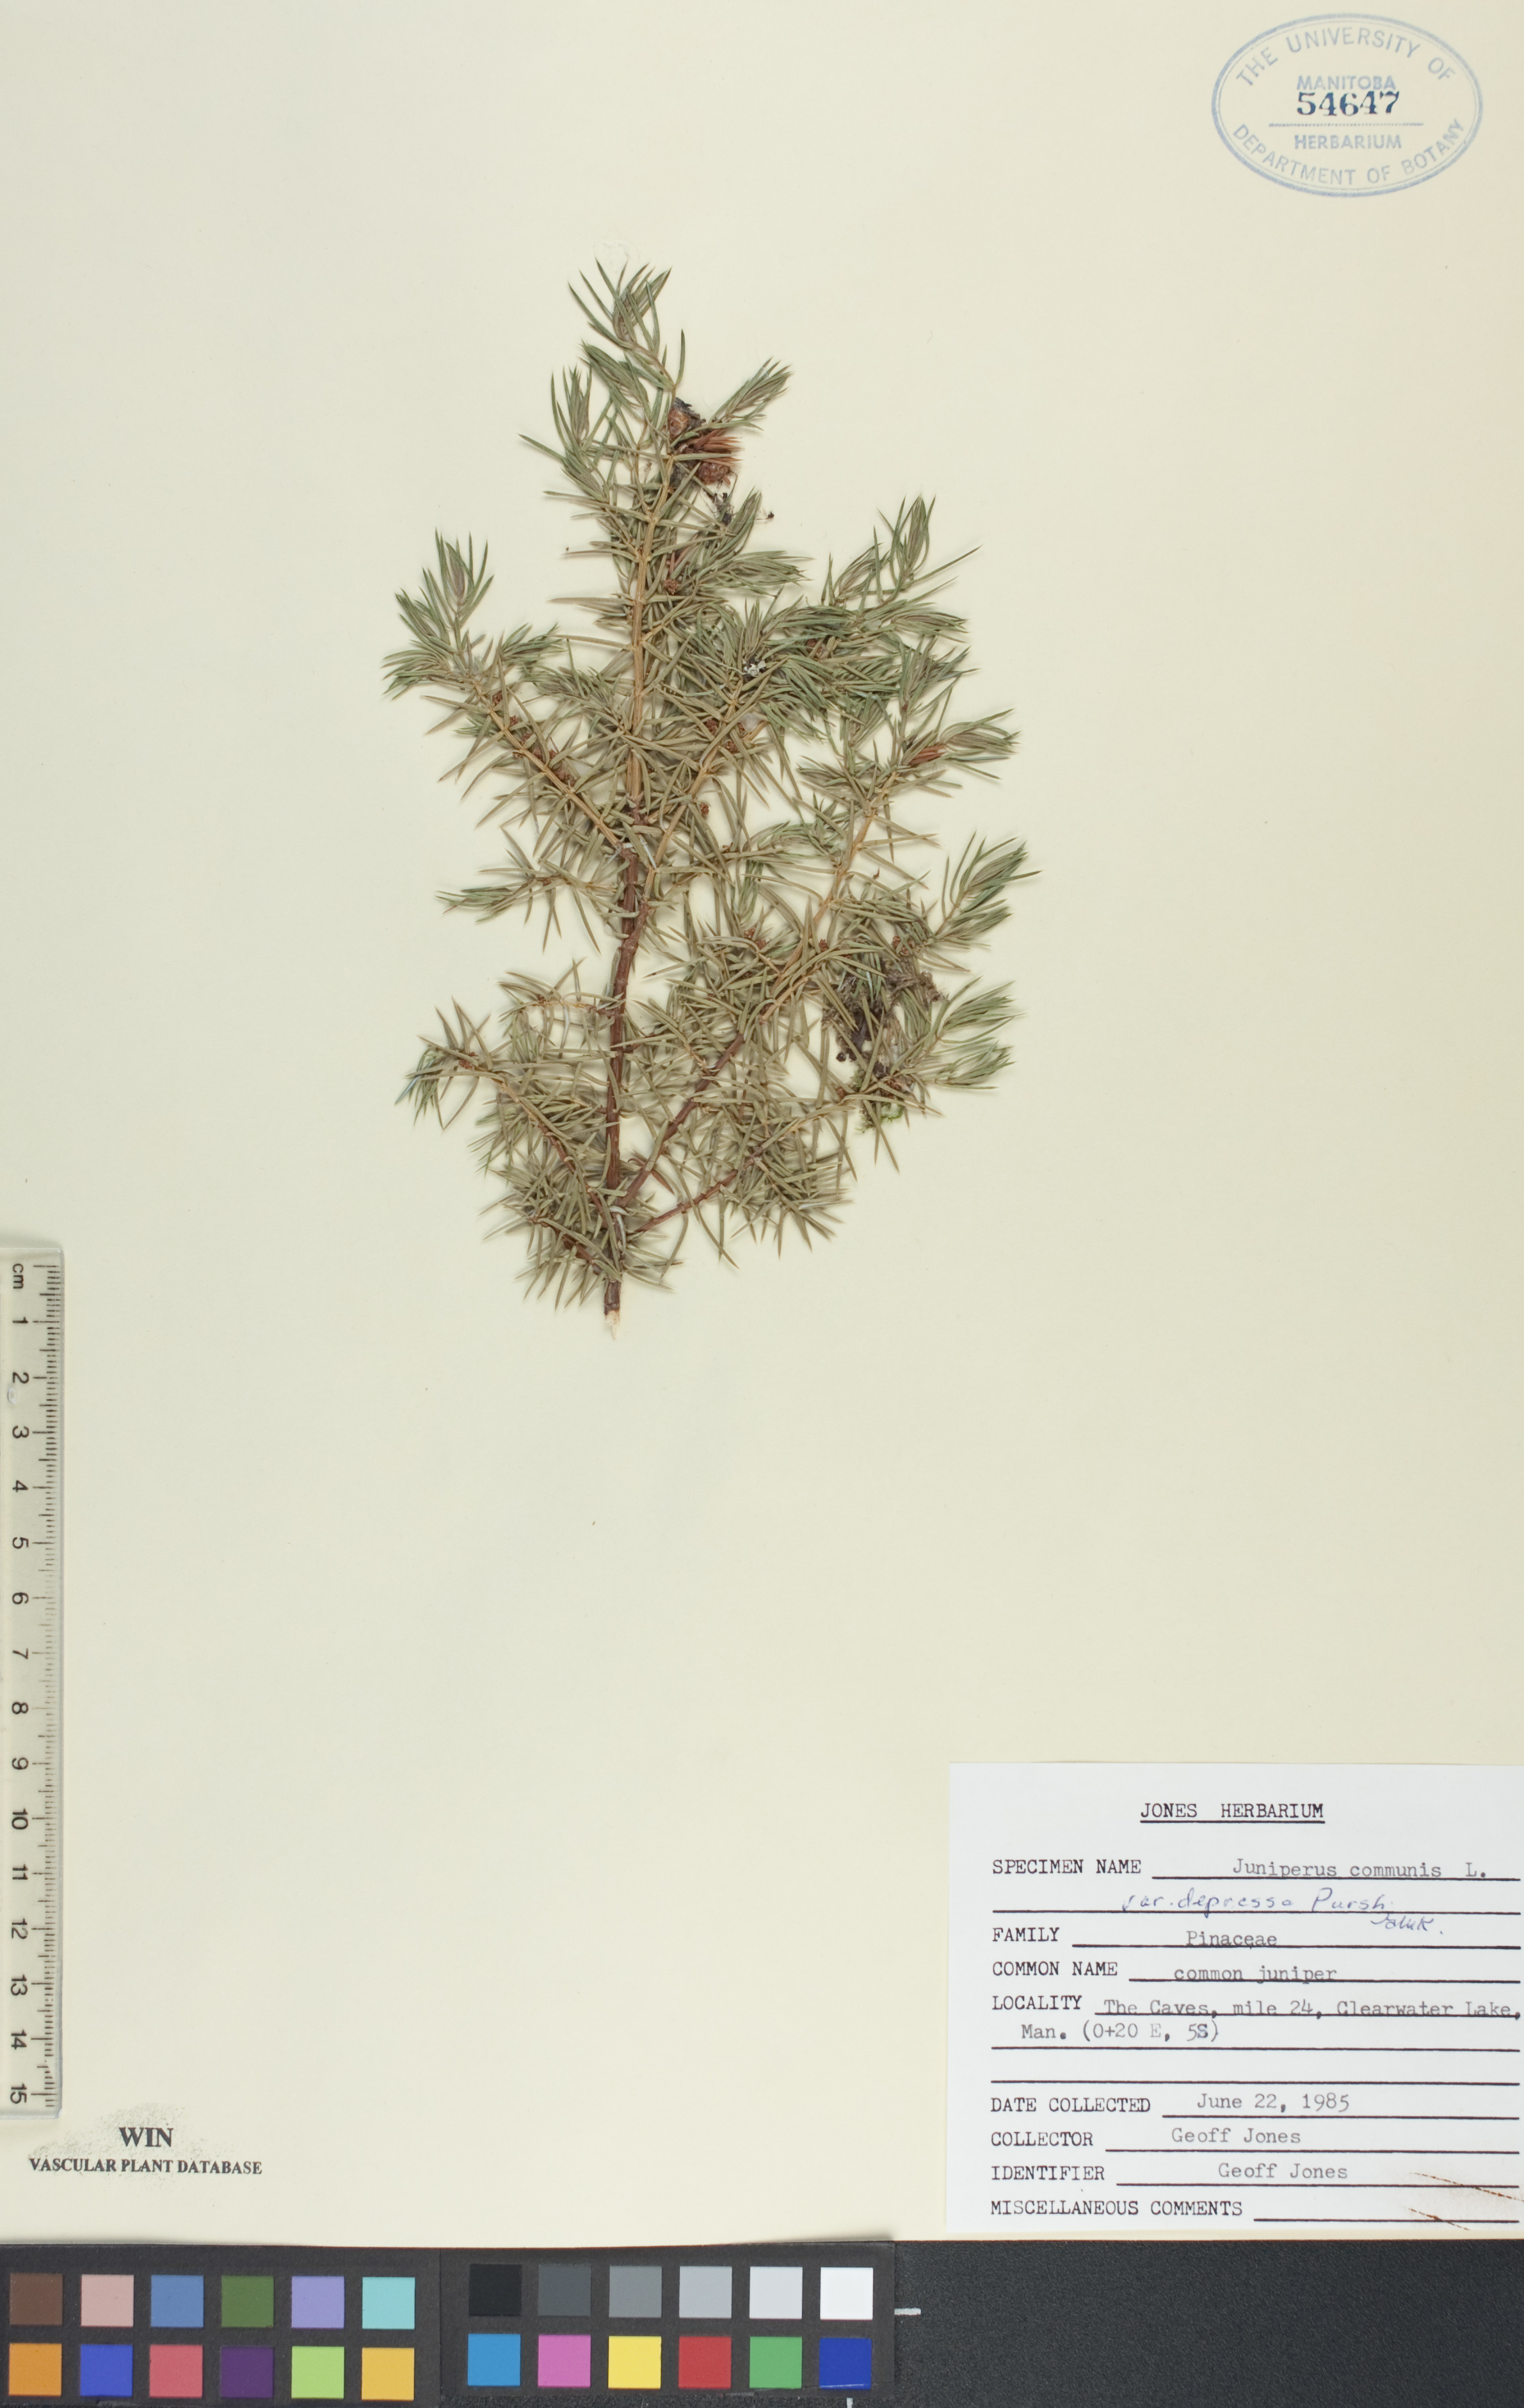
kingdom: Plantae
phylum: Tracheophyta
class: Pinopsida
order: Pinales
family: Cupressaceae
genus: Juniperus
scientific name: Juniperus communis
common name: Common juniper
